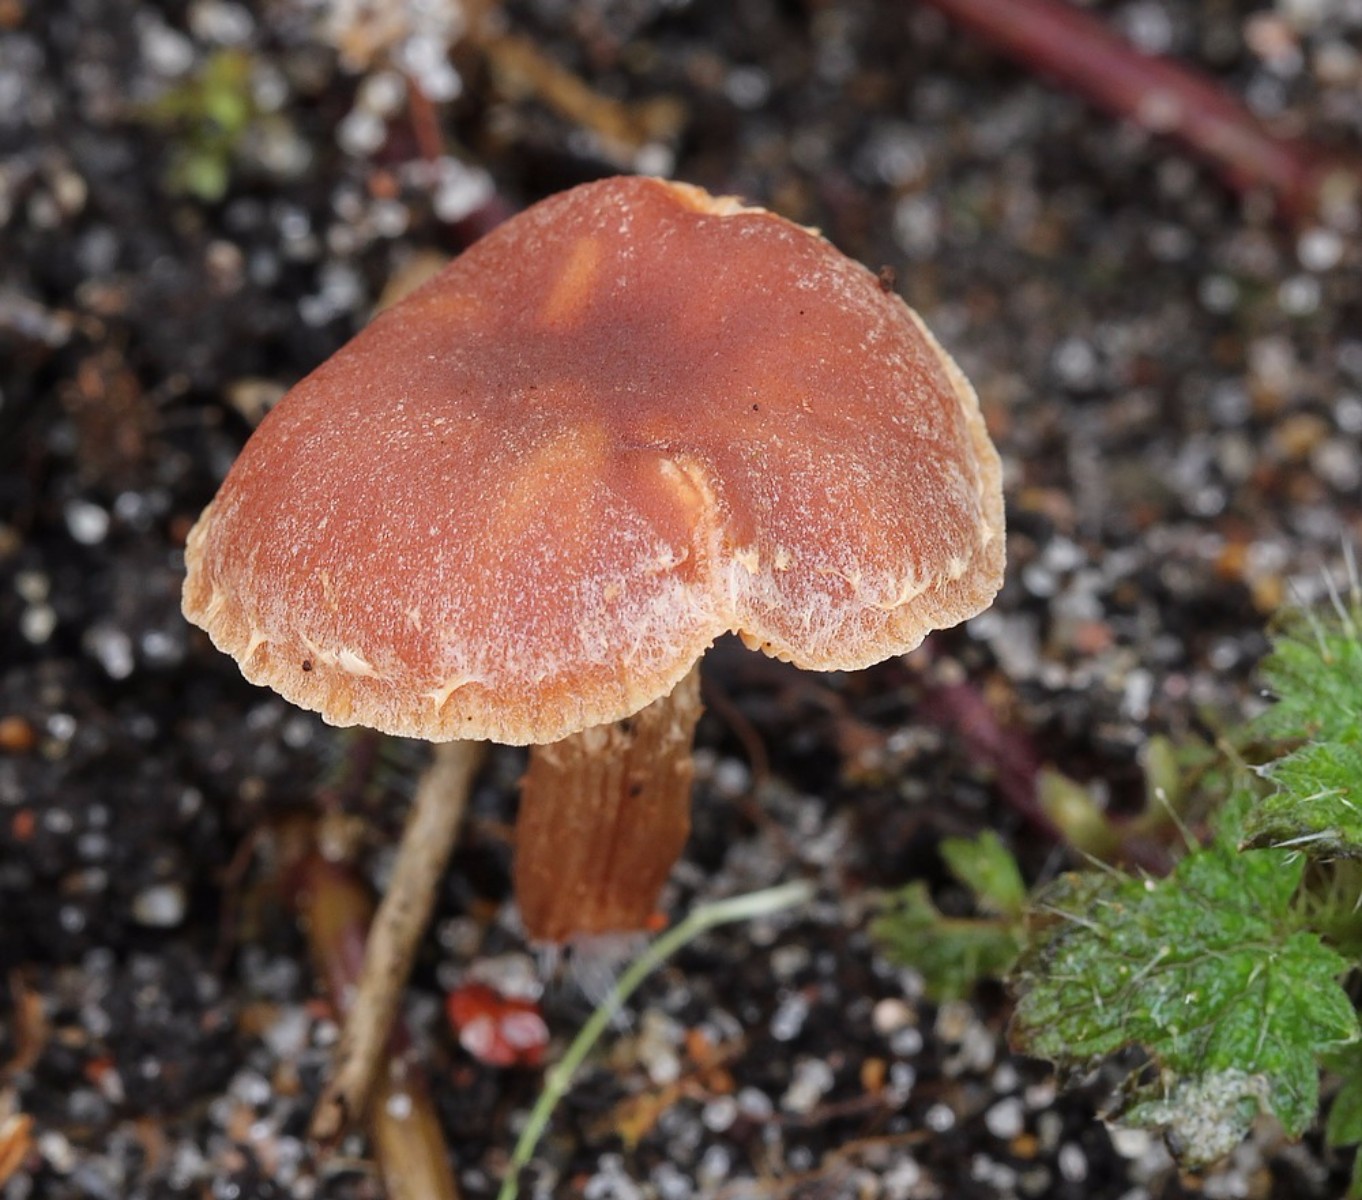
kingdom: Fungi
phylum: Basidiomycota
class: Agaricomycetes
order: Agaricales
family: Tubariaceae
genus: Tubaria
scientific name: Tubaria furfuracea
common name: kliddet fnughat
